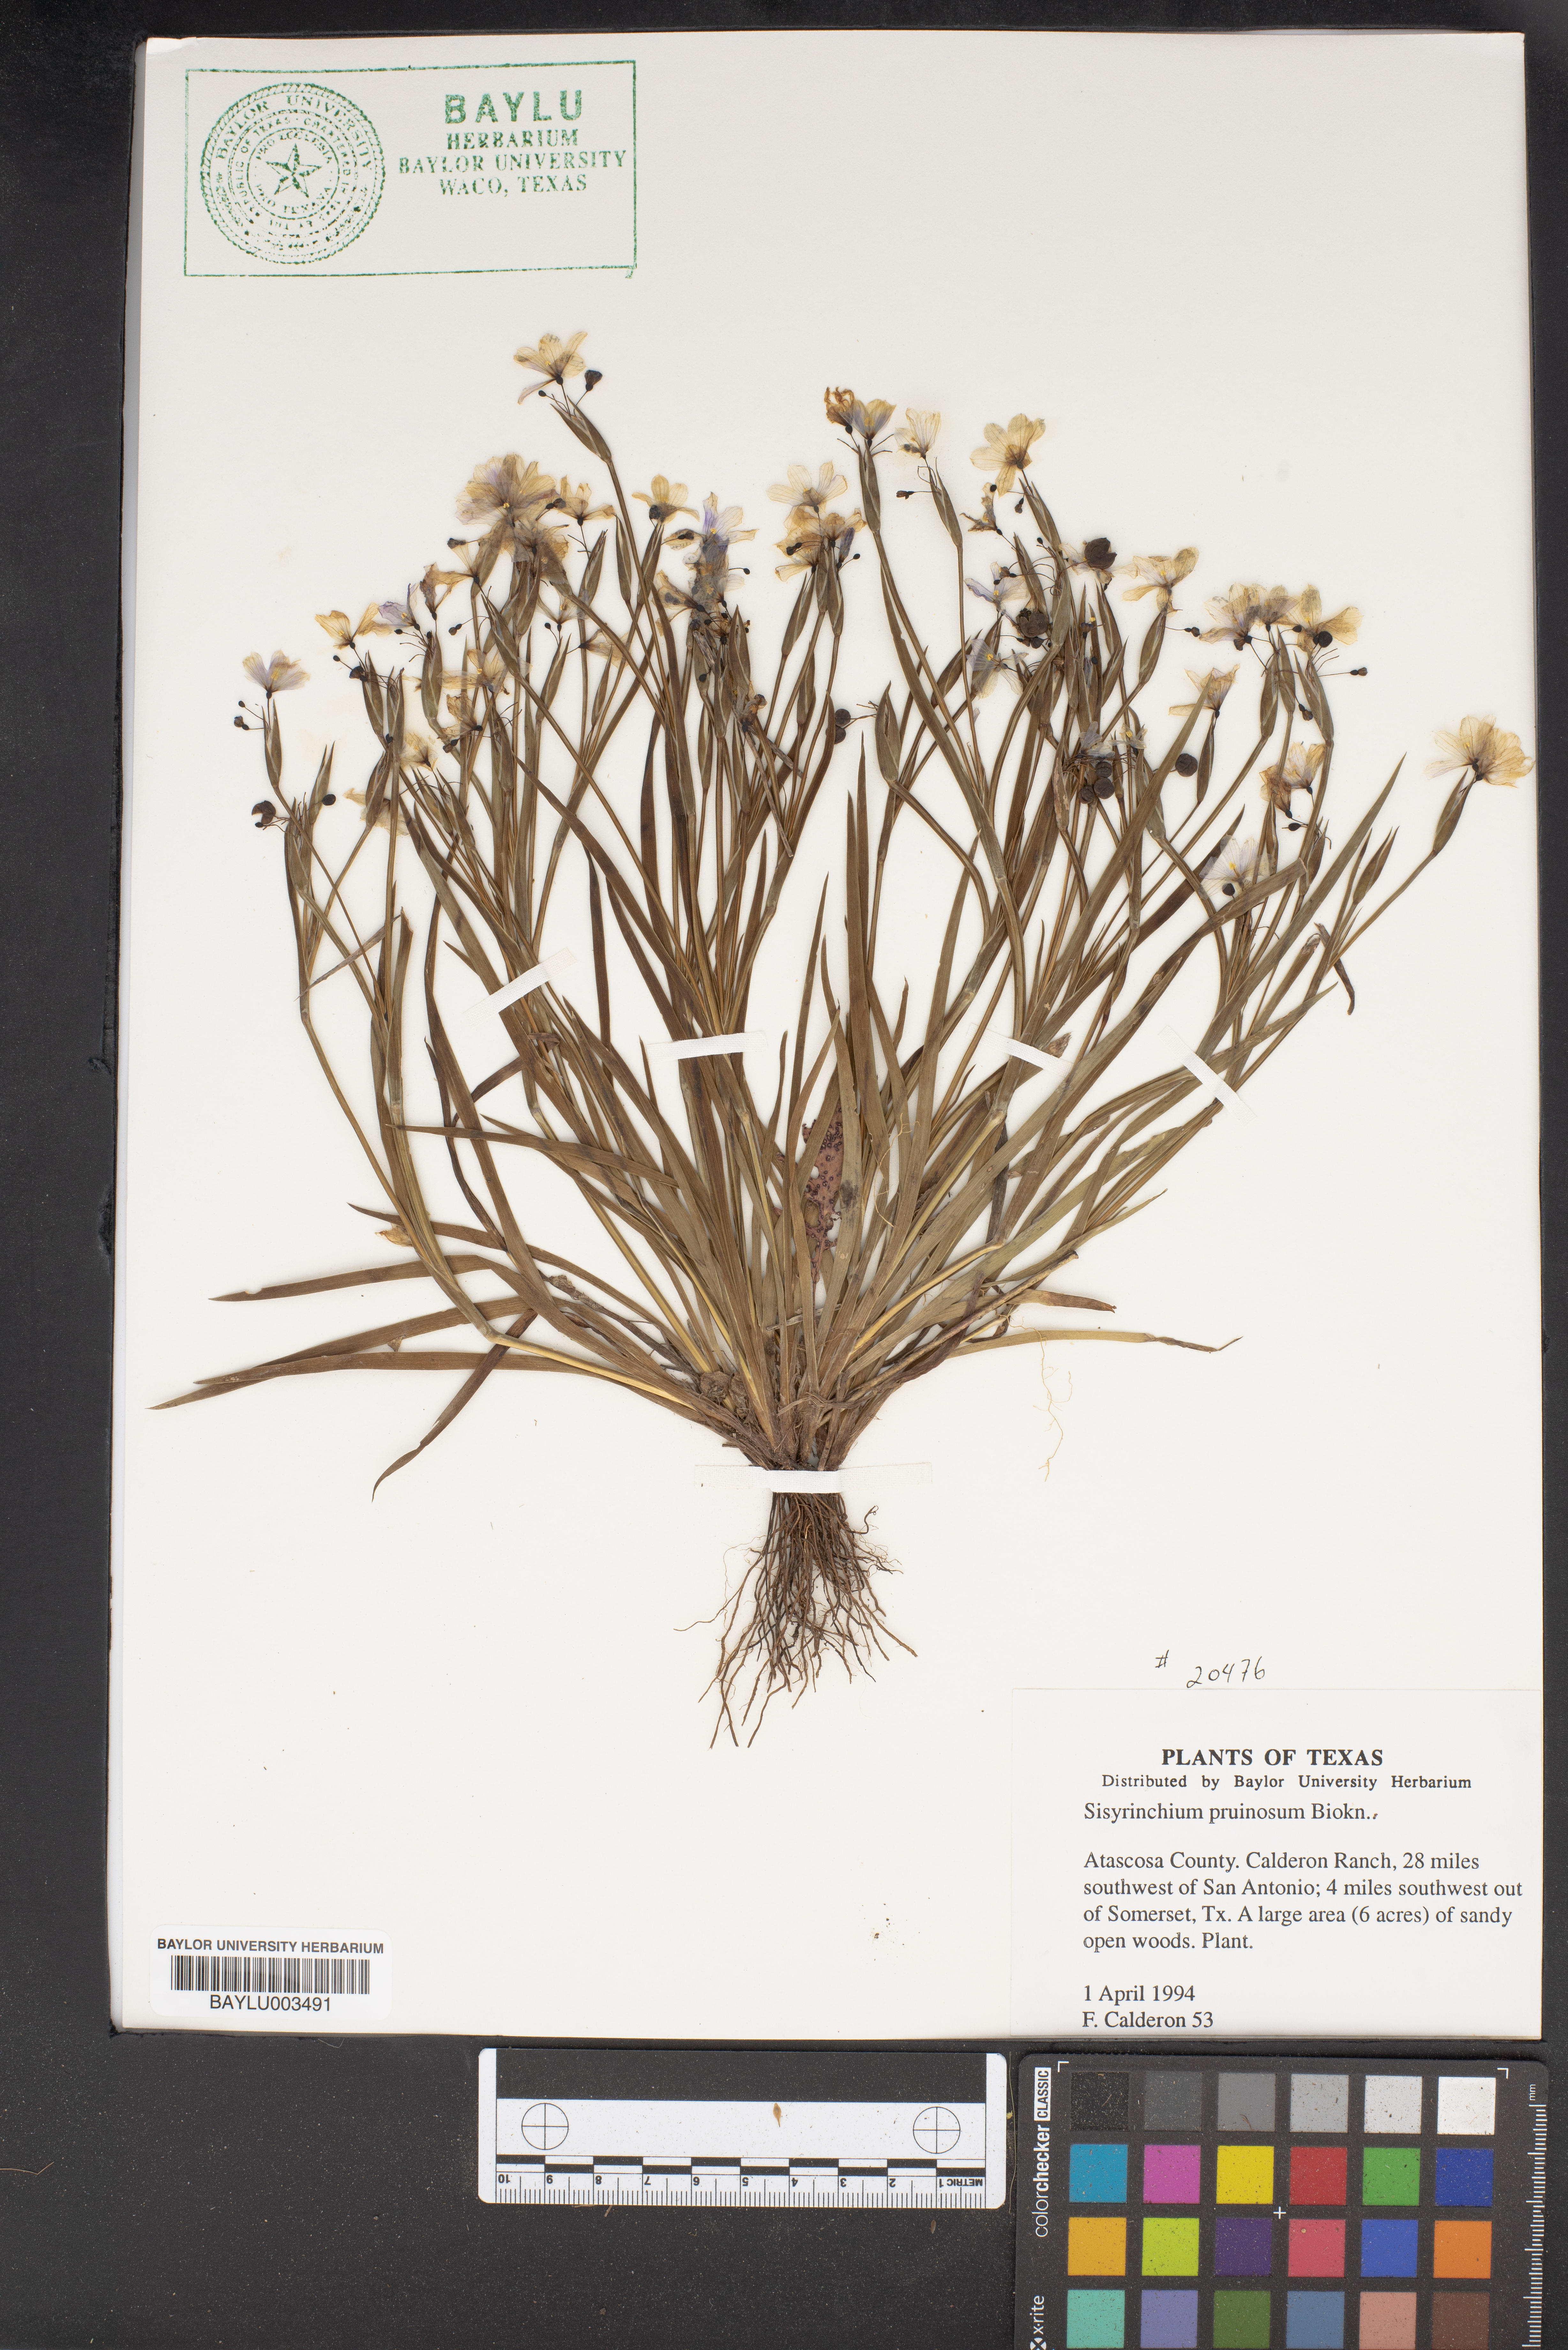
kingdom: Plantae
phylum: Tracheophyta
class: Liliopsida
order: Asparagales
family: Iridaceae
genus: Sisyrinchium
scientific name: Sisyrinchium pruinosum
